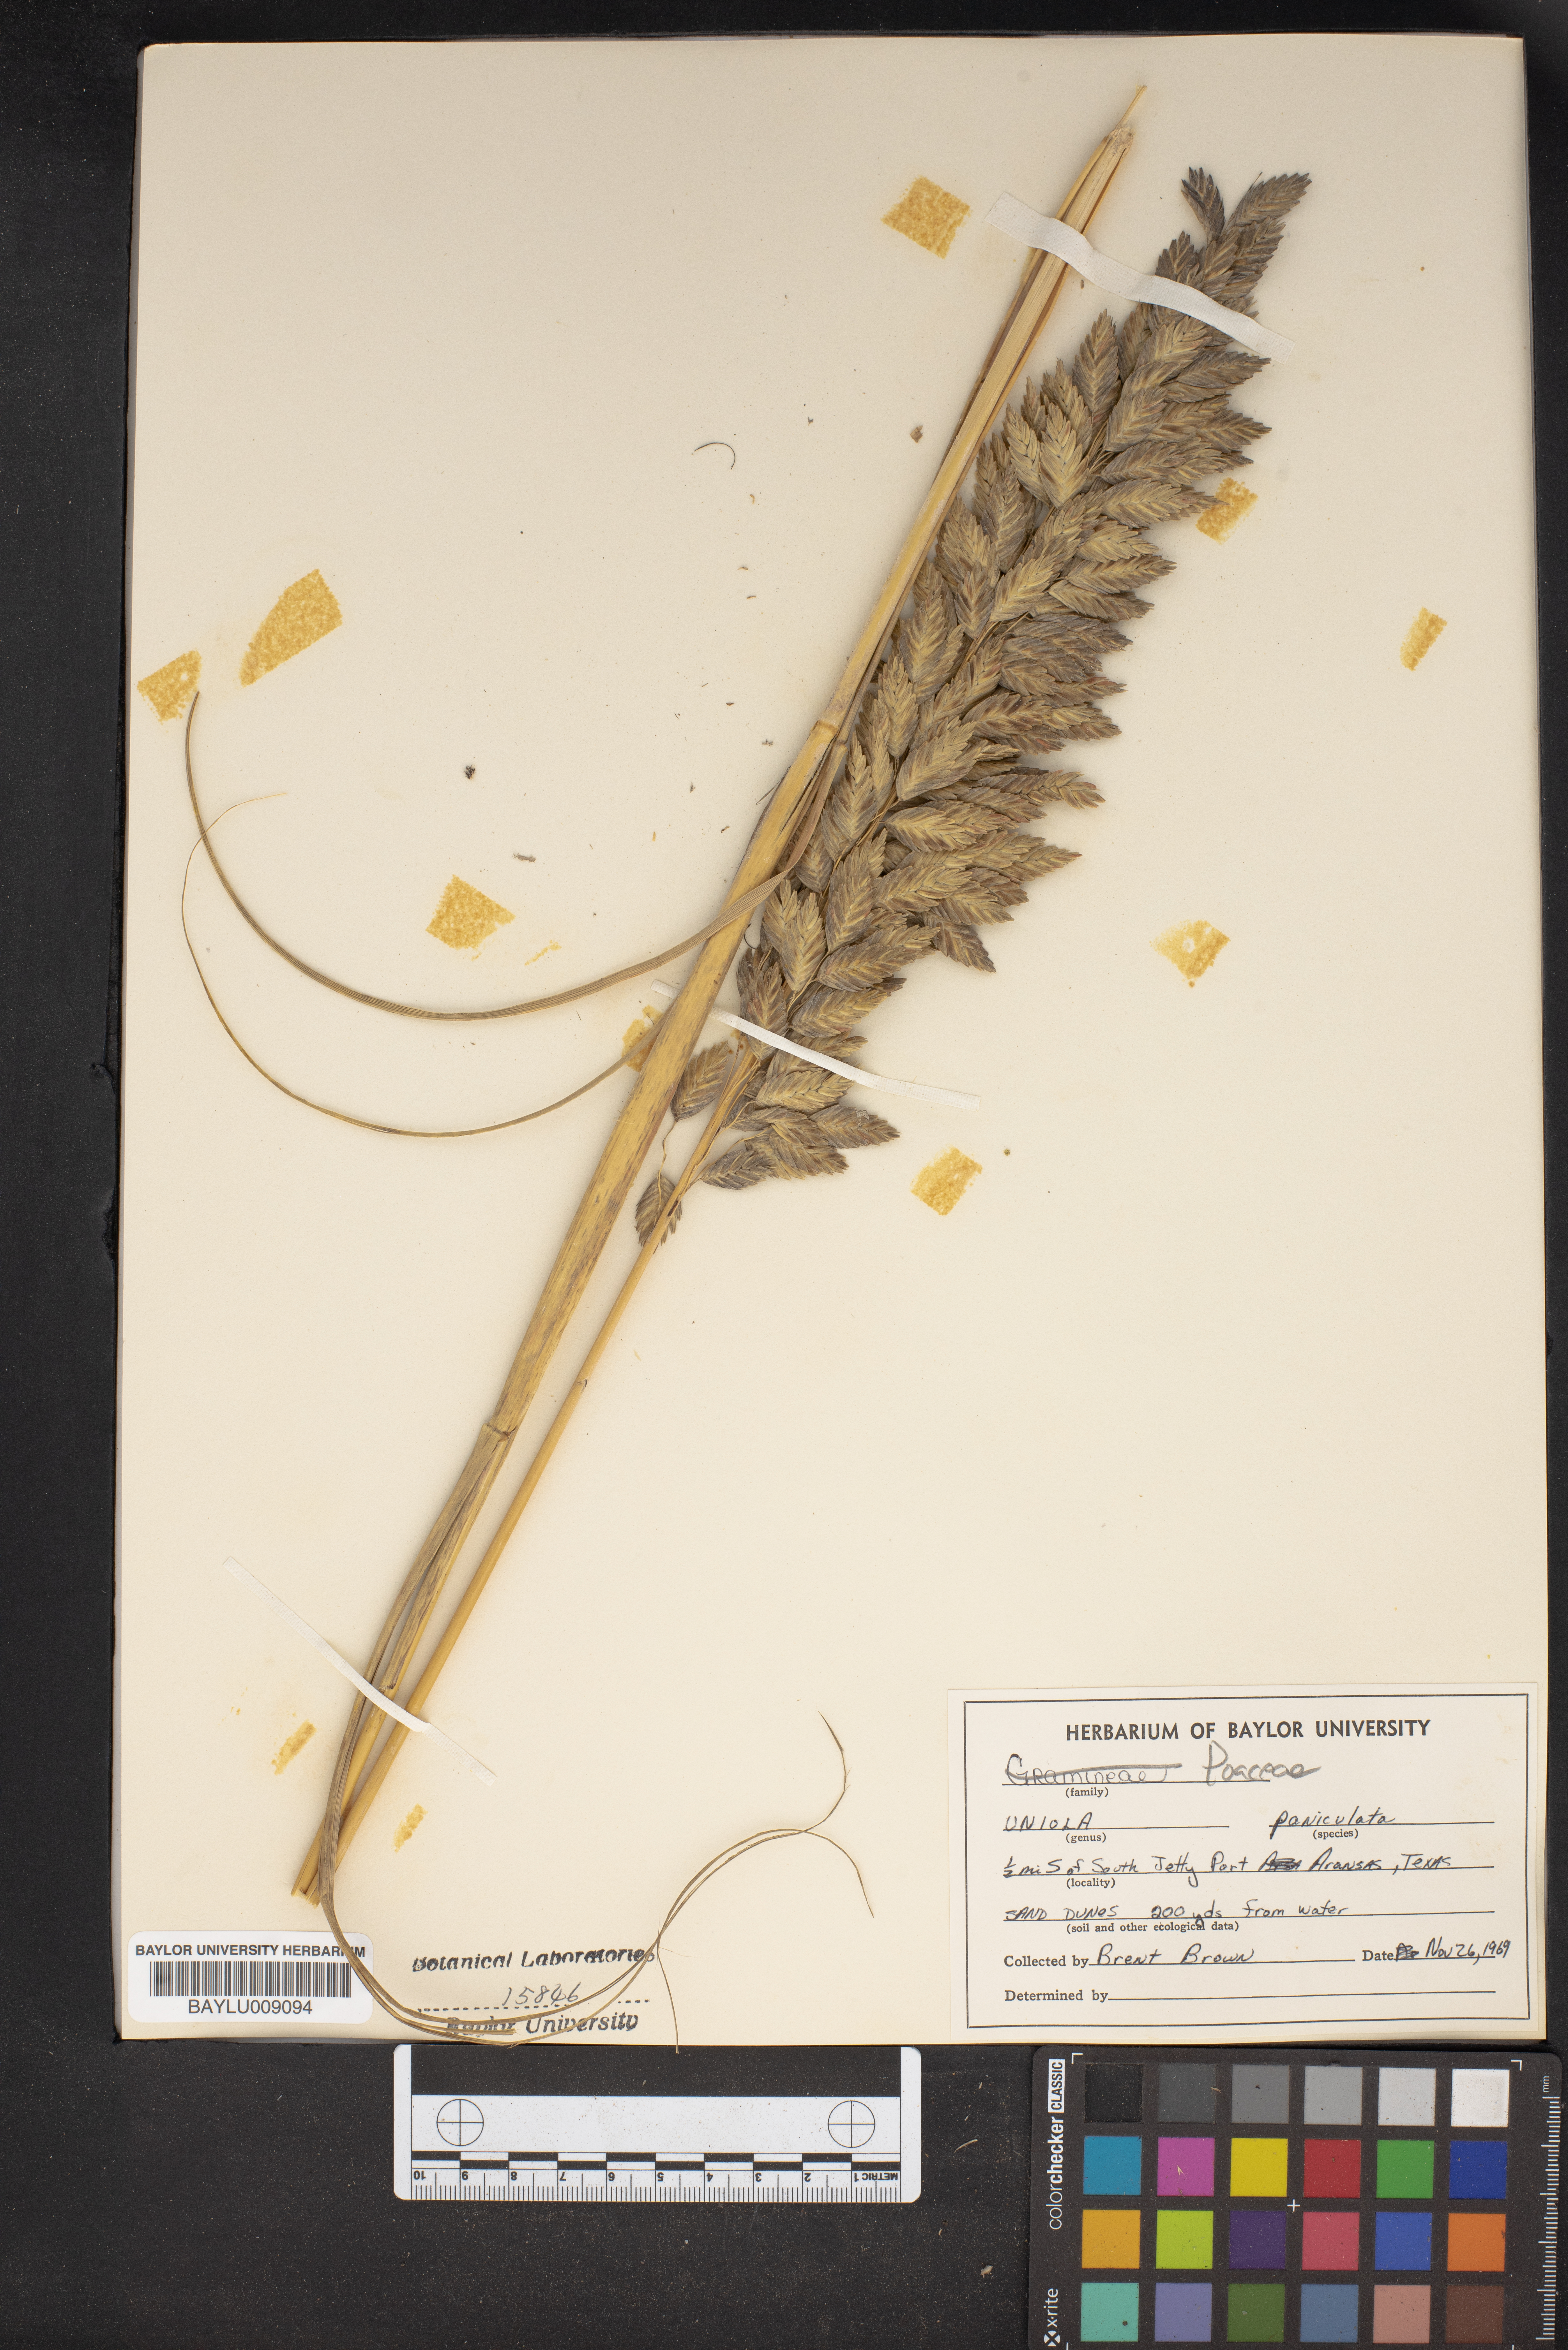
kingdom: Plantae
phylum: Tracheophyta
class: Liliopsida
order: Poales
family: Poaceae
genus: Uniola
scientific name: Uniola paniculata
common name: Seaside-oats
